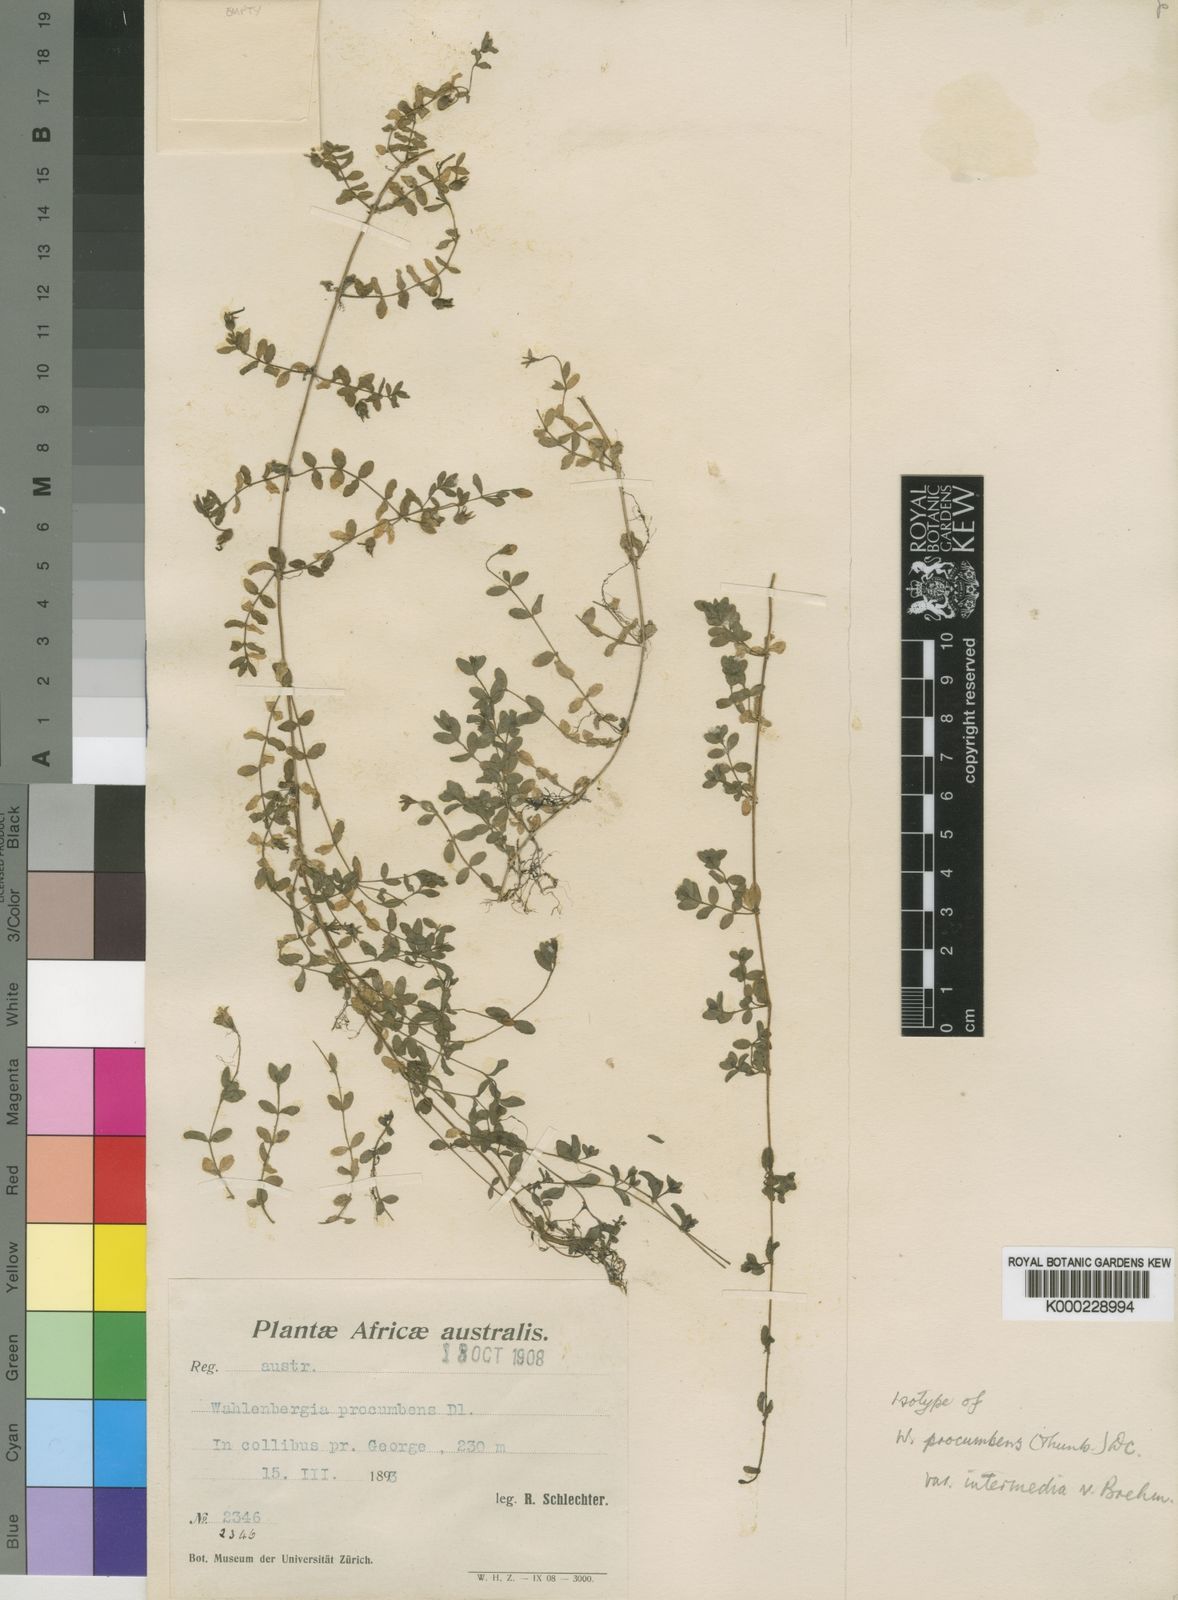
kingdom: Plantae
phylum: Tracheophyta
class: Magnoliopsida
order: Asterales
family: Campanulaceae
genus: Wahlenbergia
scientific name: Wahlenbergia procumbens
